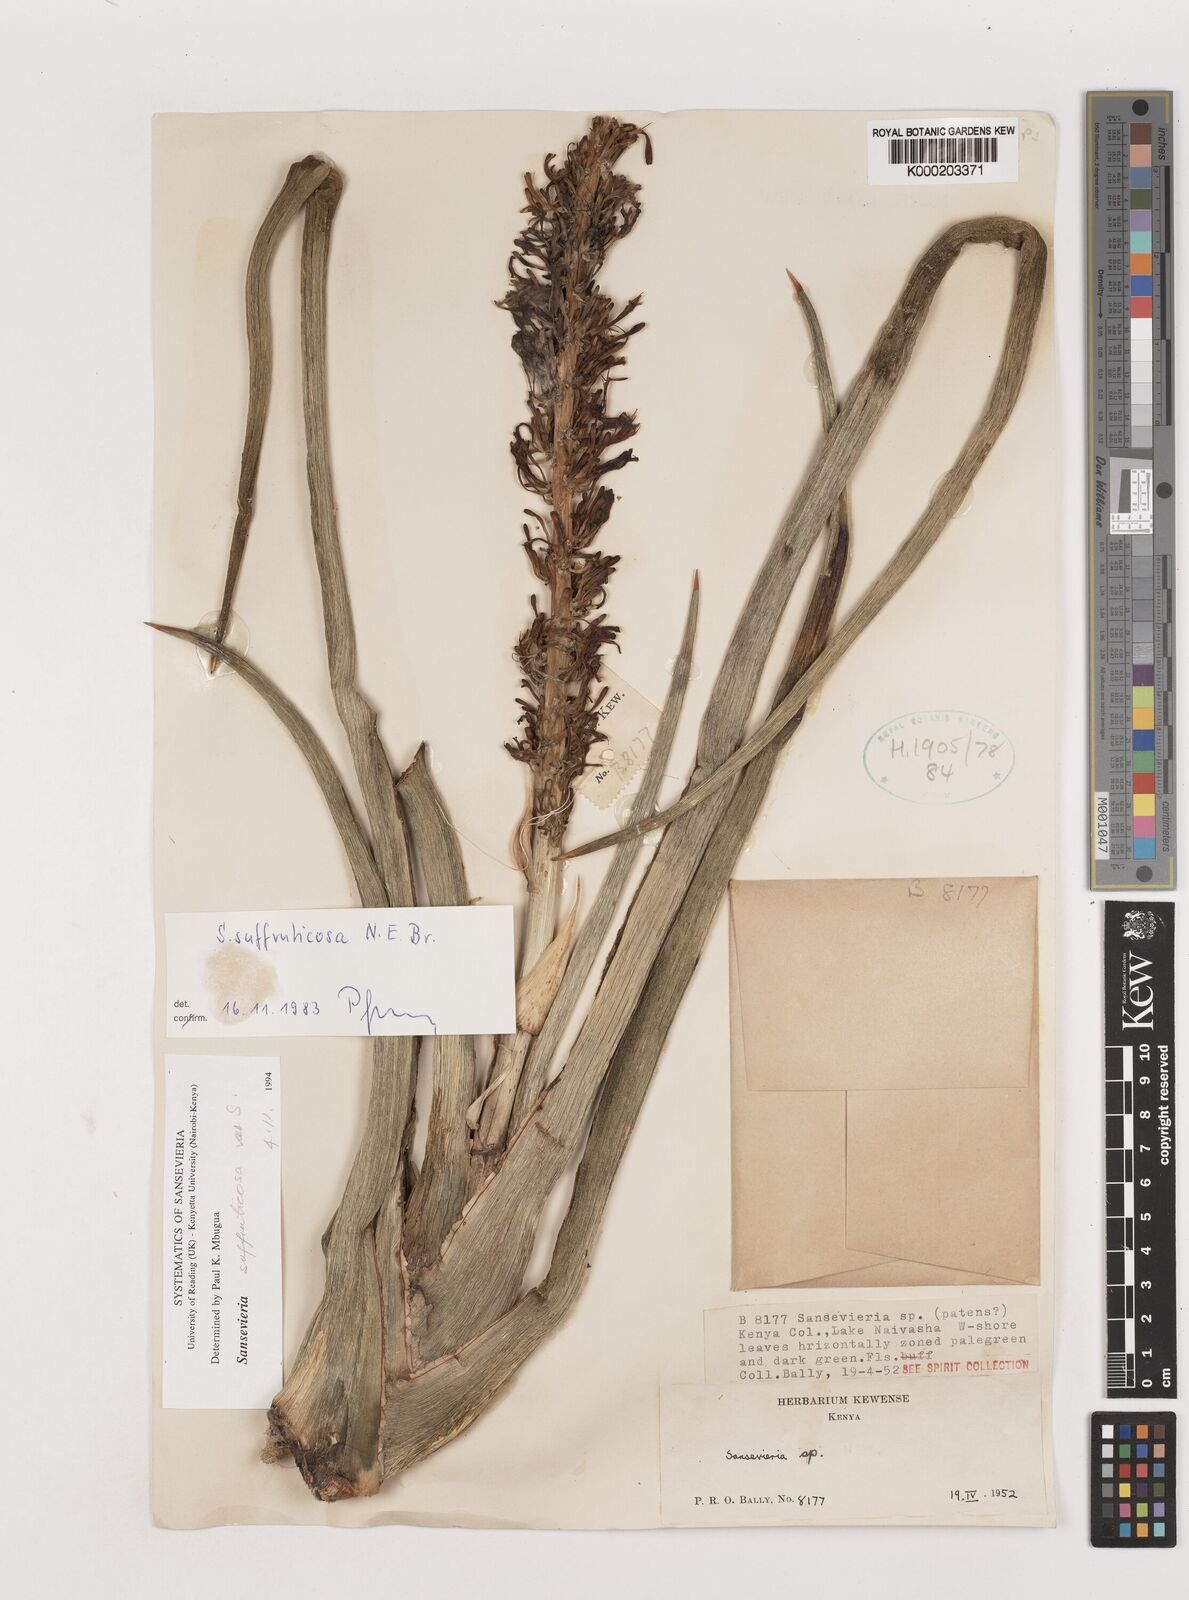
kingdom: Plantae
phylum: Tracheophyta
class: Liliopsida
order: Asparagales
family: Asparagaceae
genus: Dracaena
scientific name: Dracaena suffruticosa
